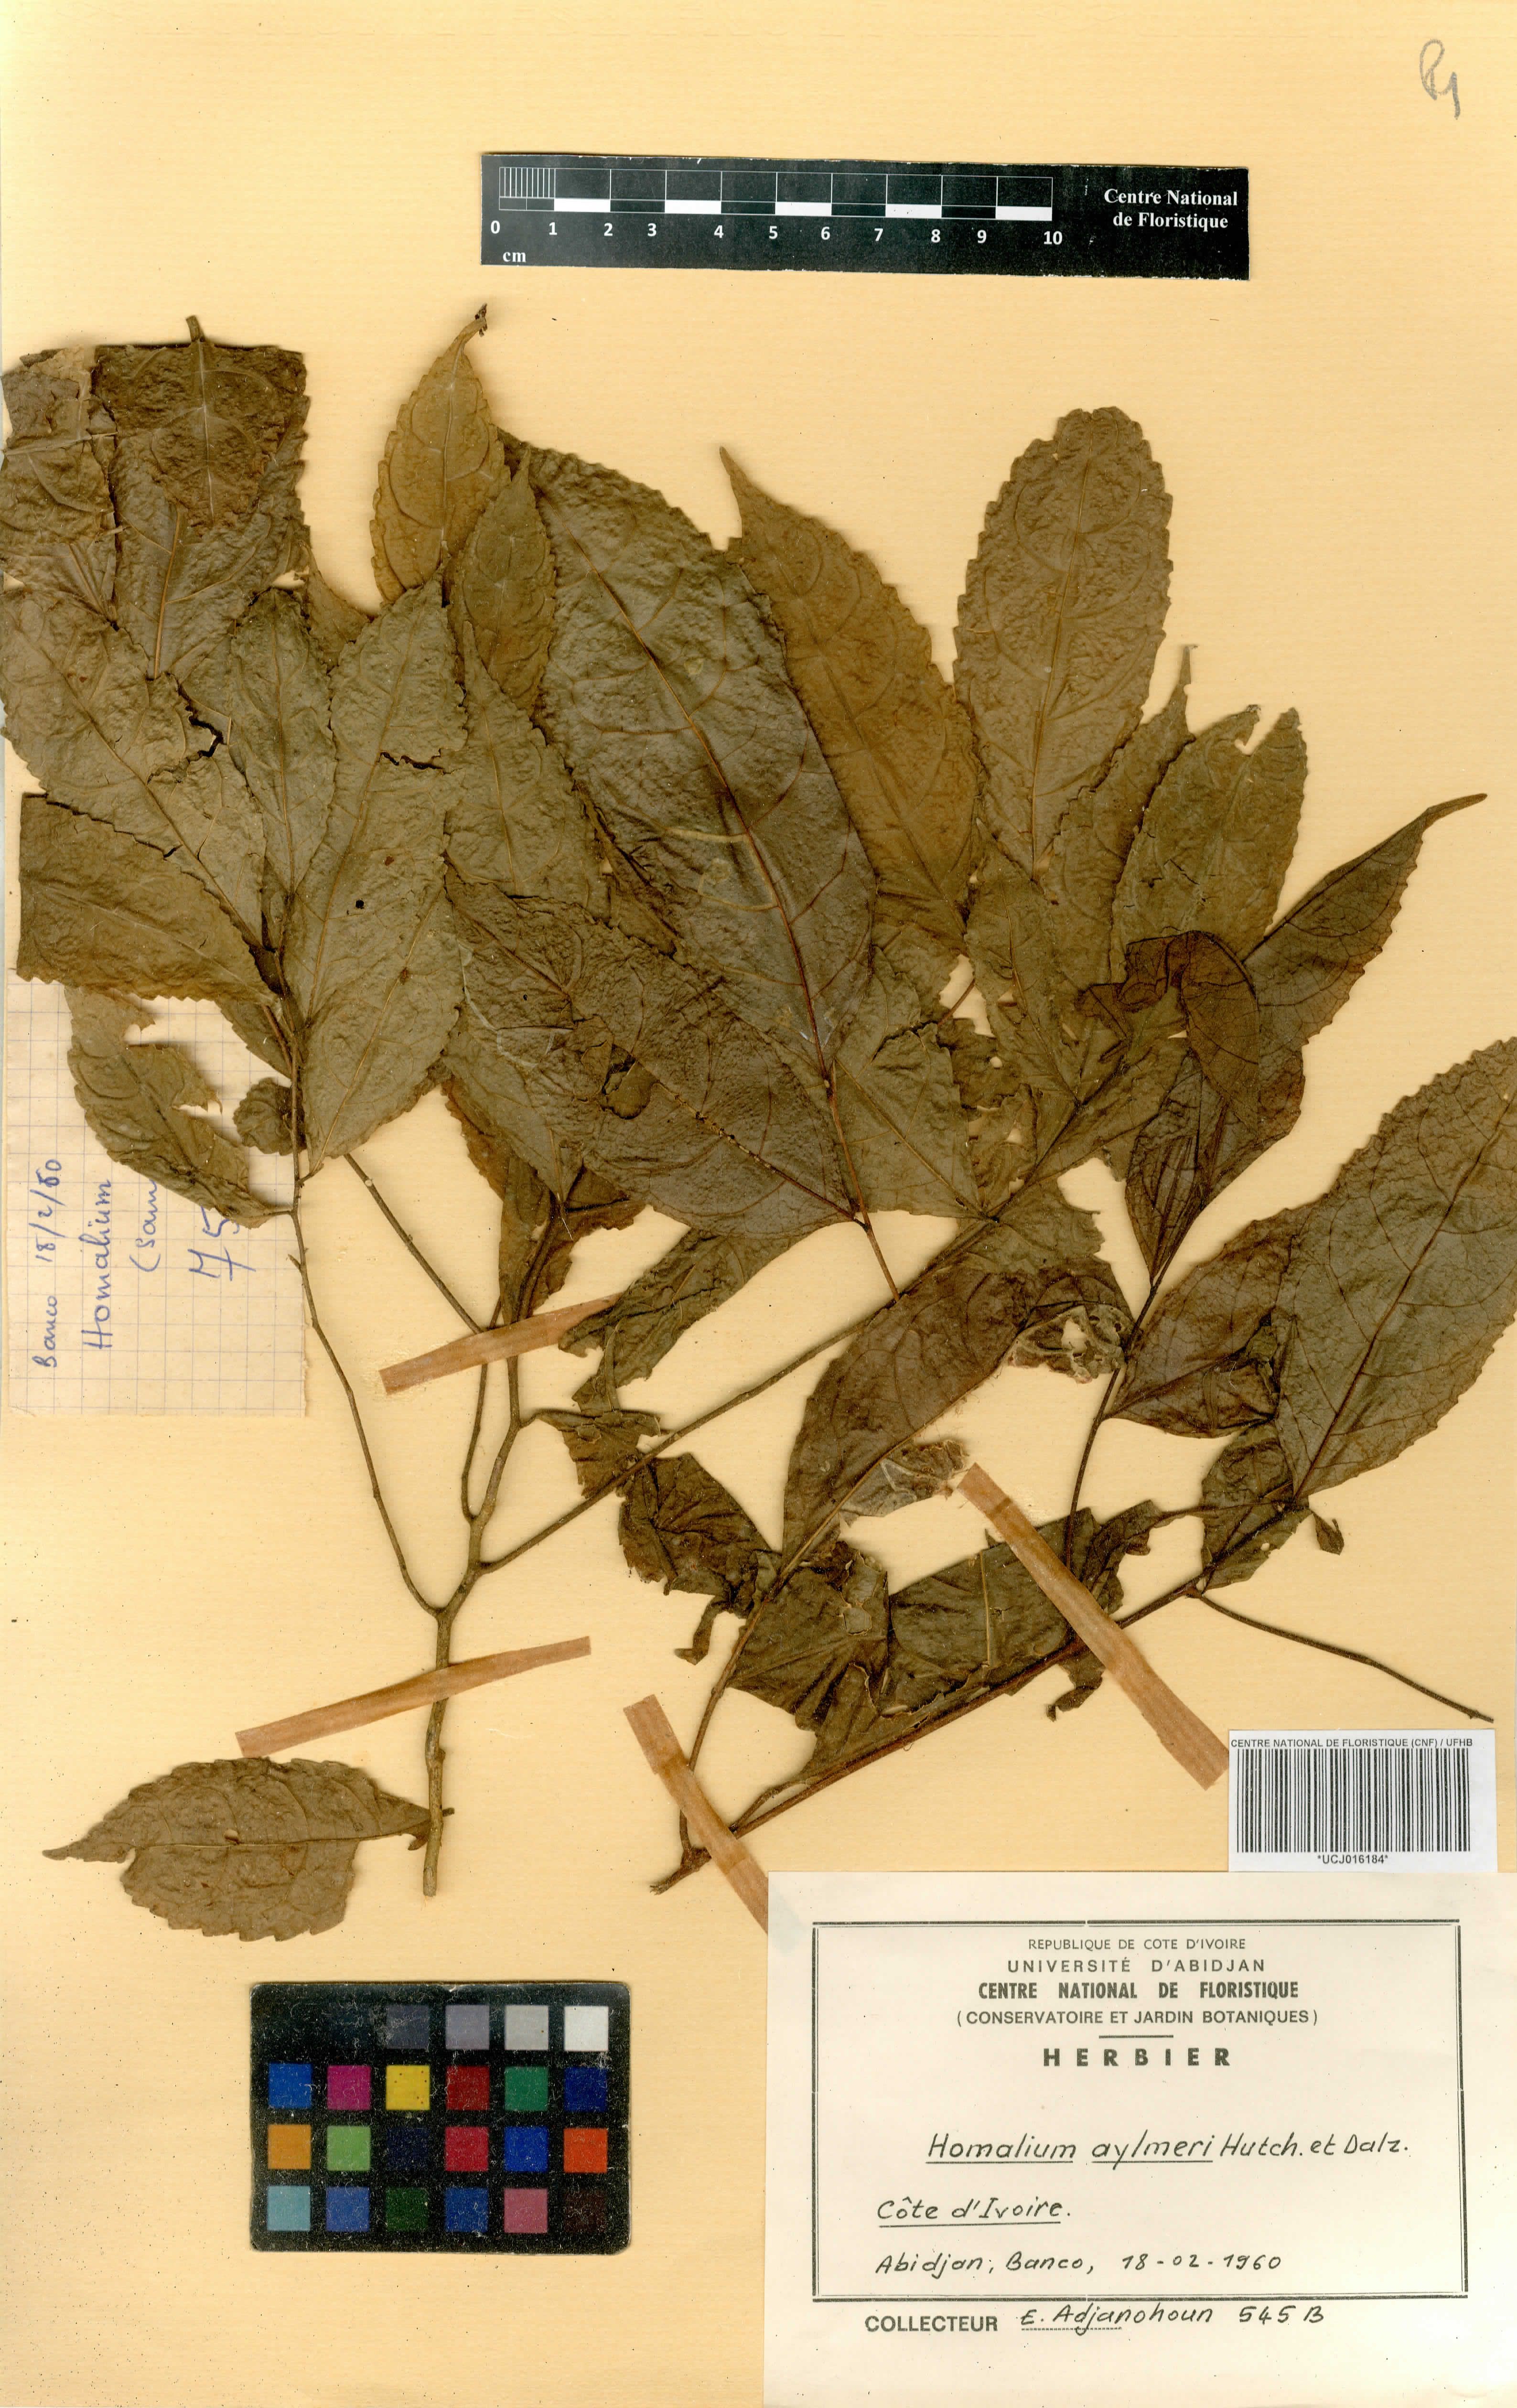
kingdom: Plantae
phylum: Tracheophyta
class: Magnoliopsida
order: Malpighiales
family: Salicaceae
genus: Homalium
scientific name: Homalium longistylum
